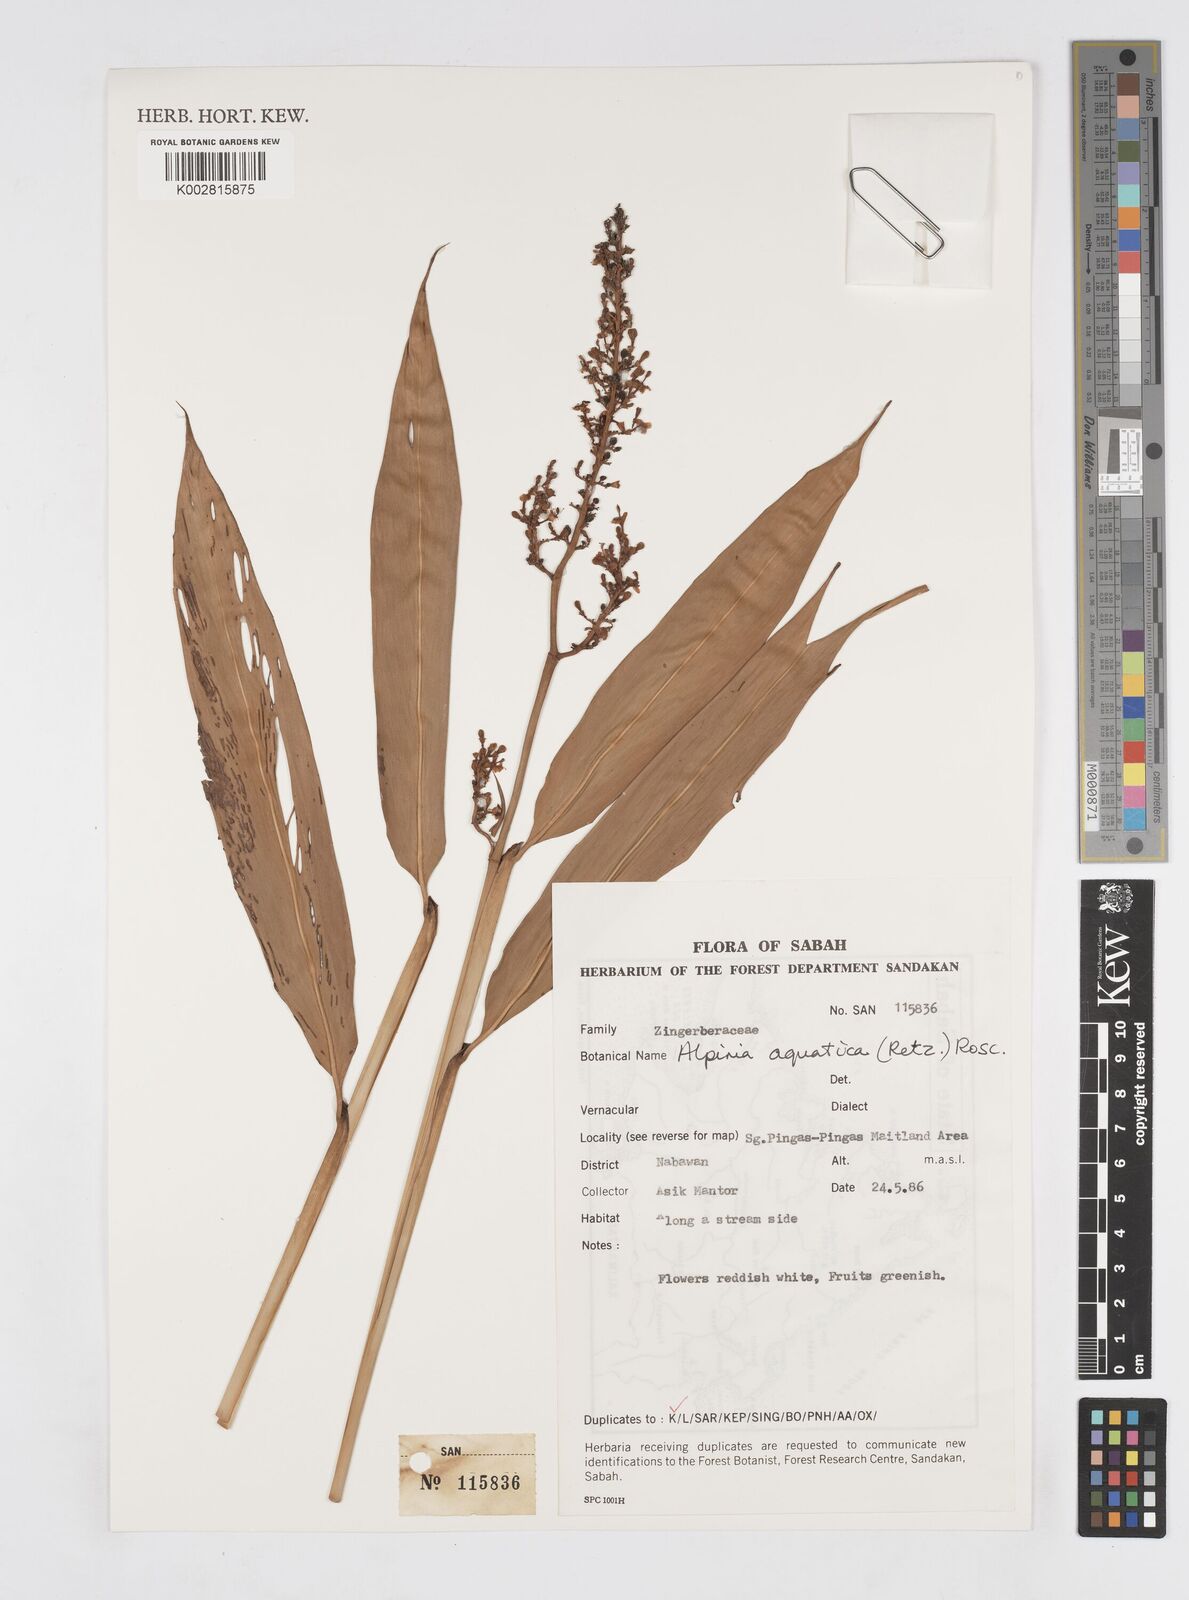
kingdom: Plantae
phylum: Tracheophyta
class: Liliopsida
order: Zingiberales
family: Zingiberaceae
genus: Alpinia
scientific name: Alpinia aquatica
